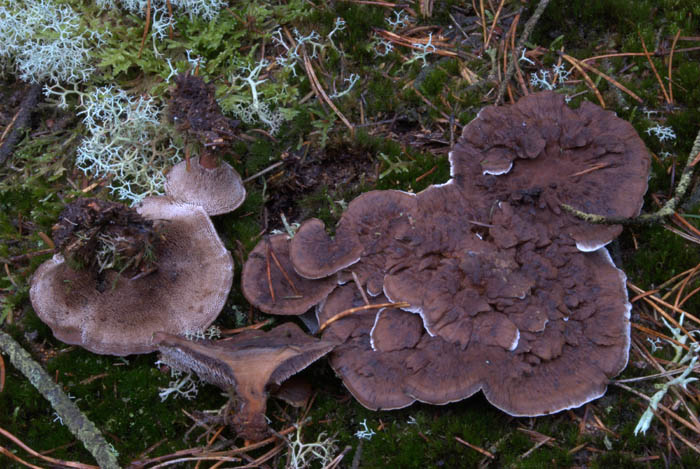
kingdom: Fungi
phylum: Basidiomycota
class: Agaricomycetes
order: Thelephorales
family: Bankeraceae
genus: Hydnellum
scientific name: Hydnellum aurantiacum
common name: orange korkpigsvamp
